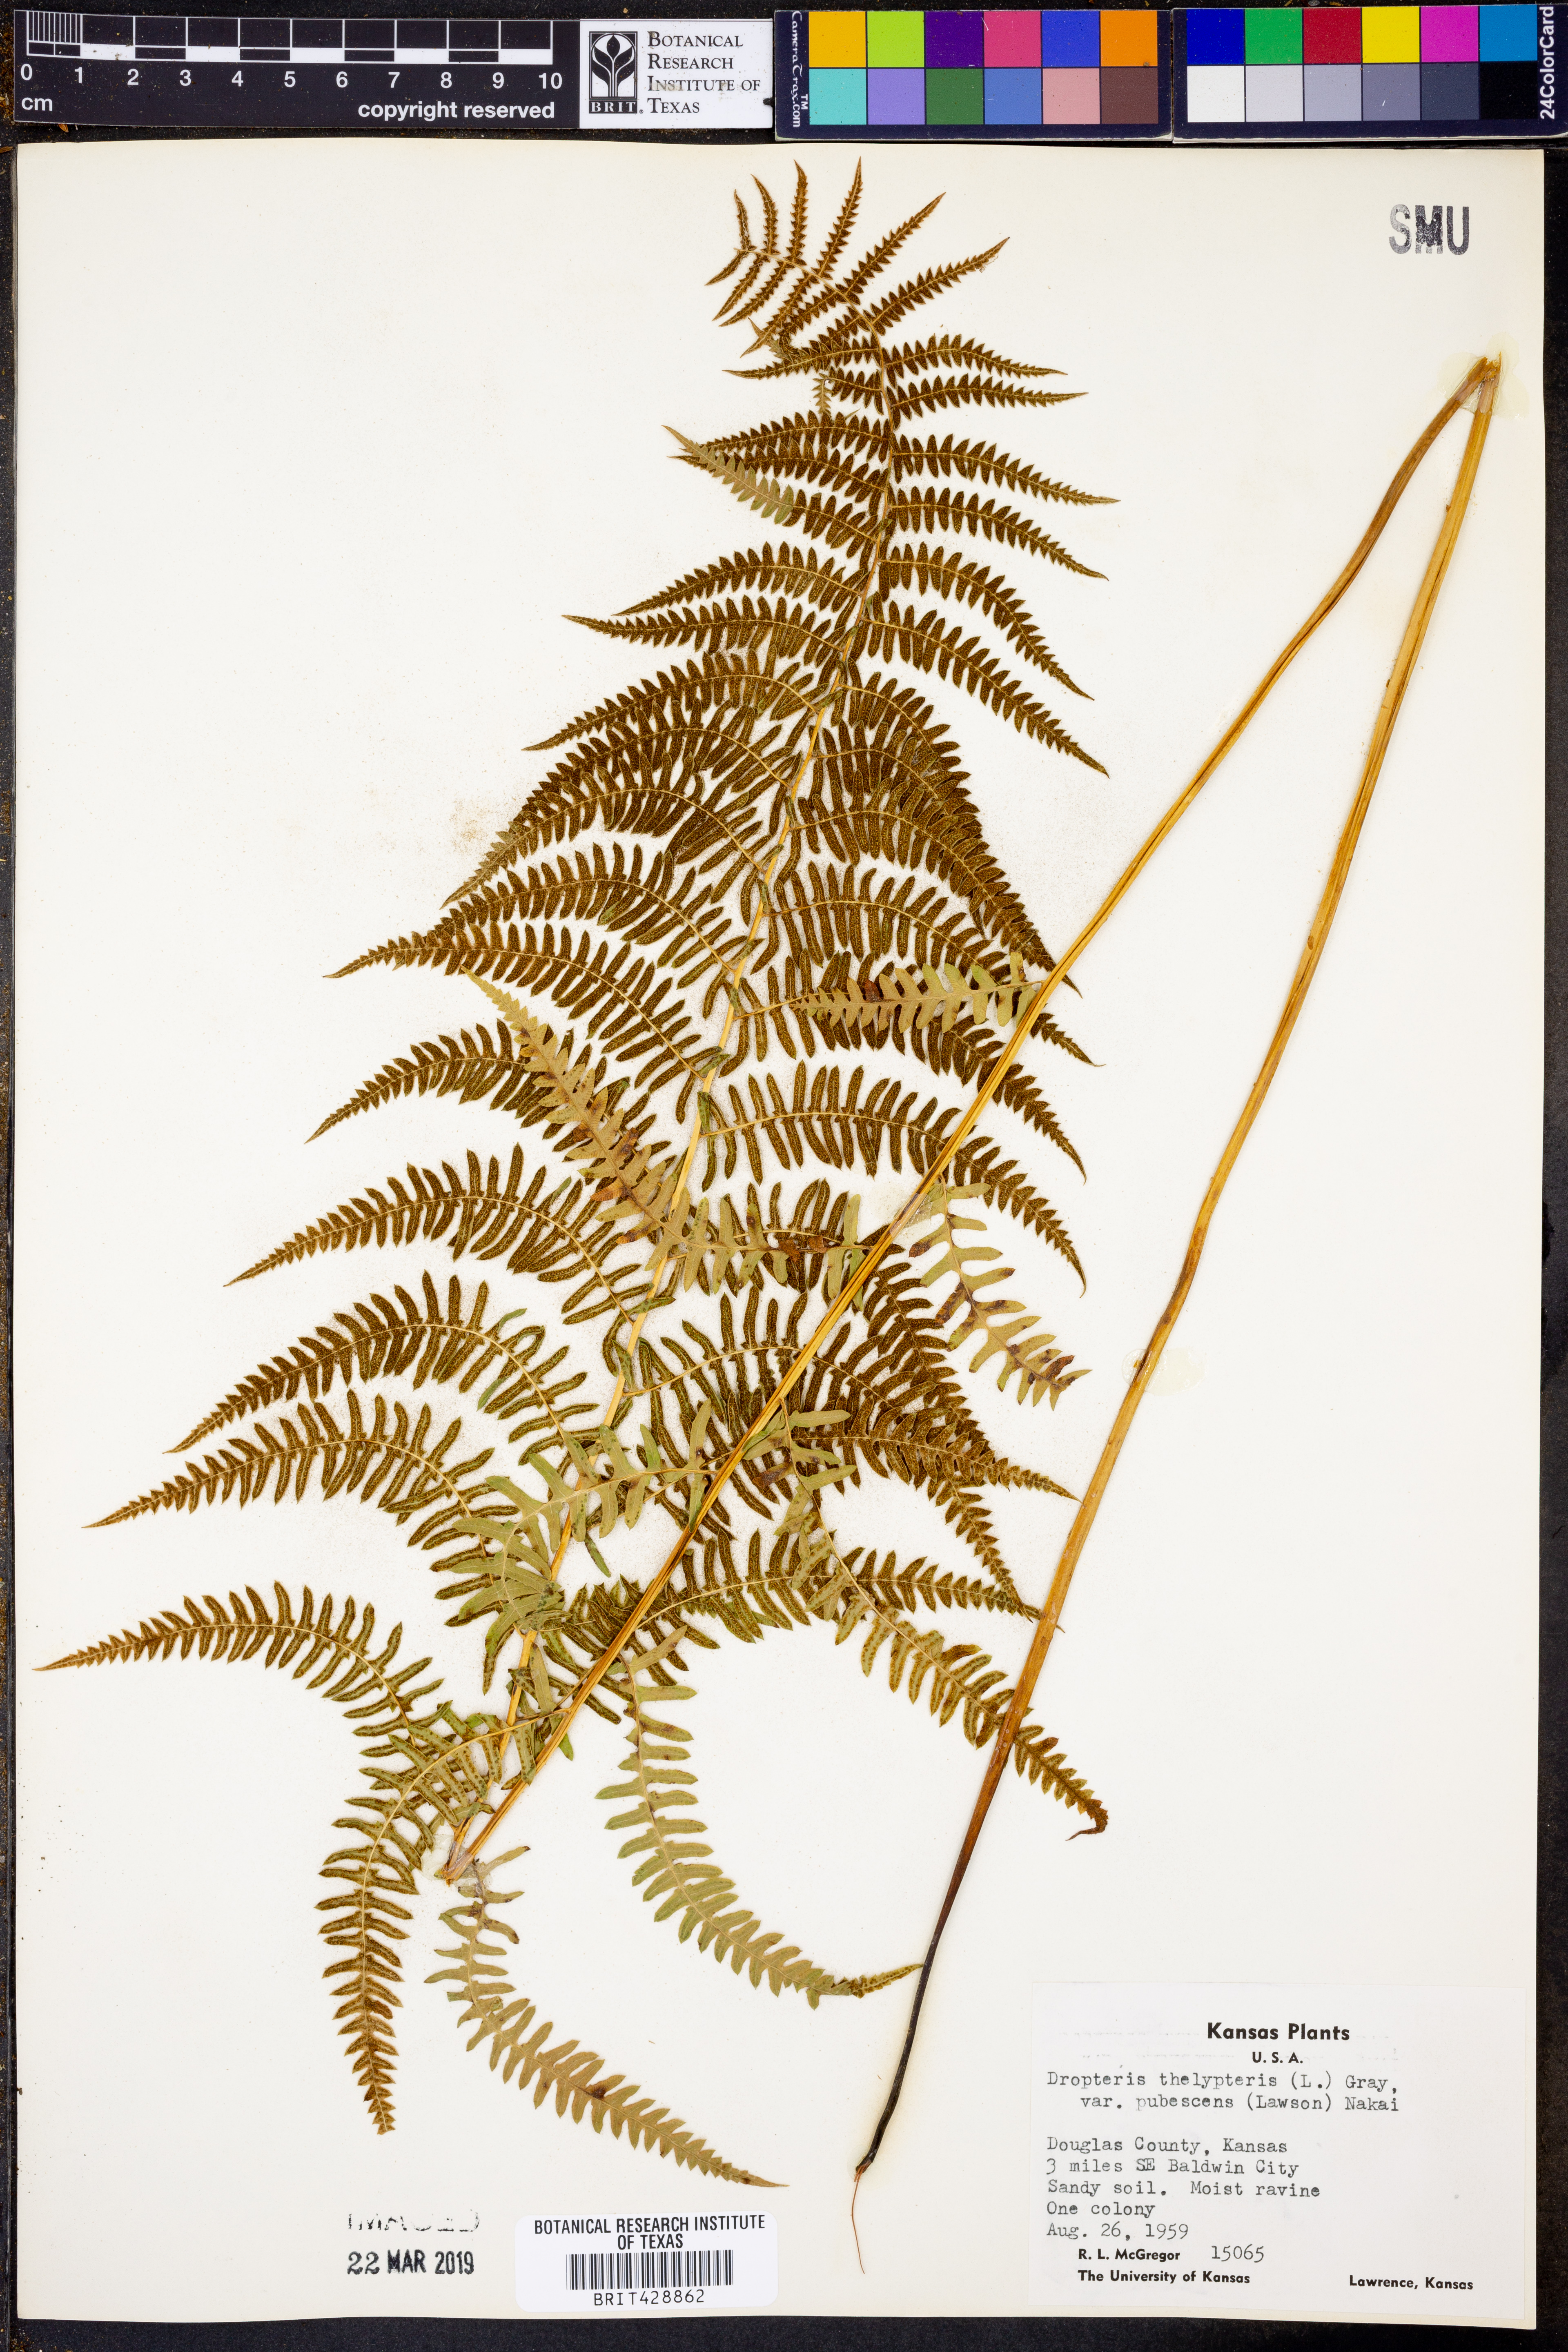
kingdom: Plantae
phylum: Tracheophyta
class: Polypodiopsida
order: Polypodiales
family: Thelypteridaceae
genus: Thelypteris
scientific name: Thelypteris palustris
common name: Marsh fern
